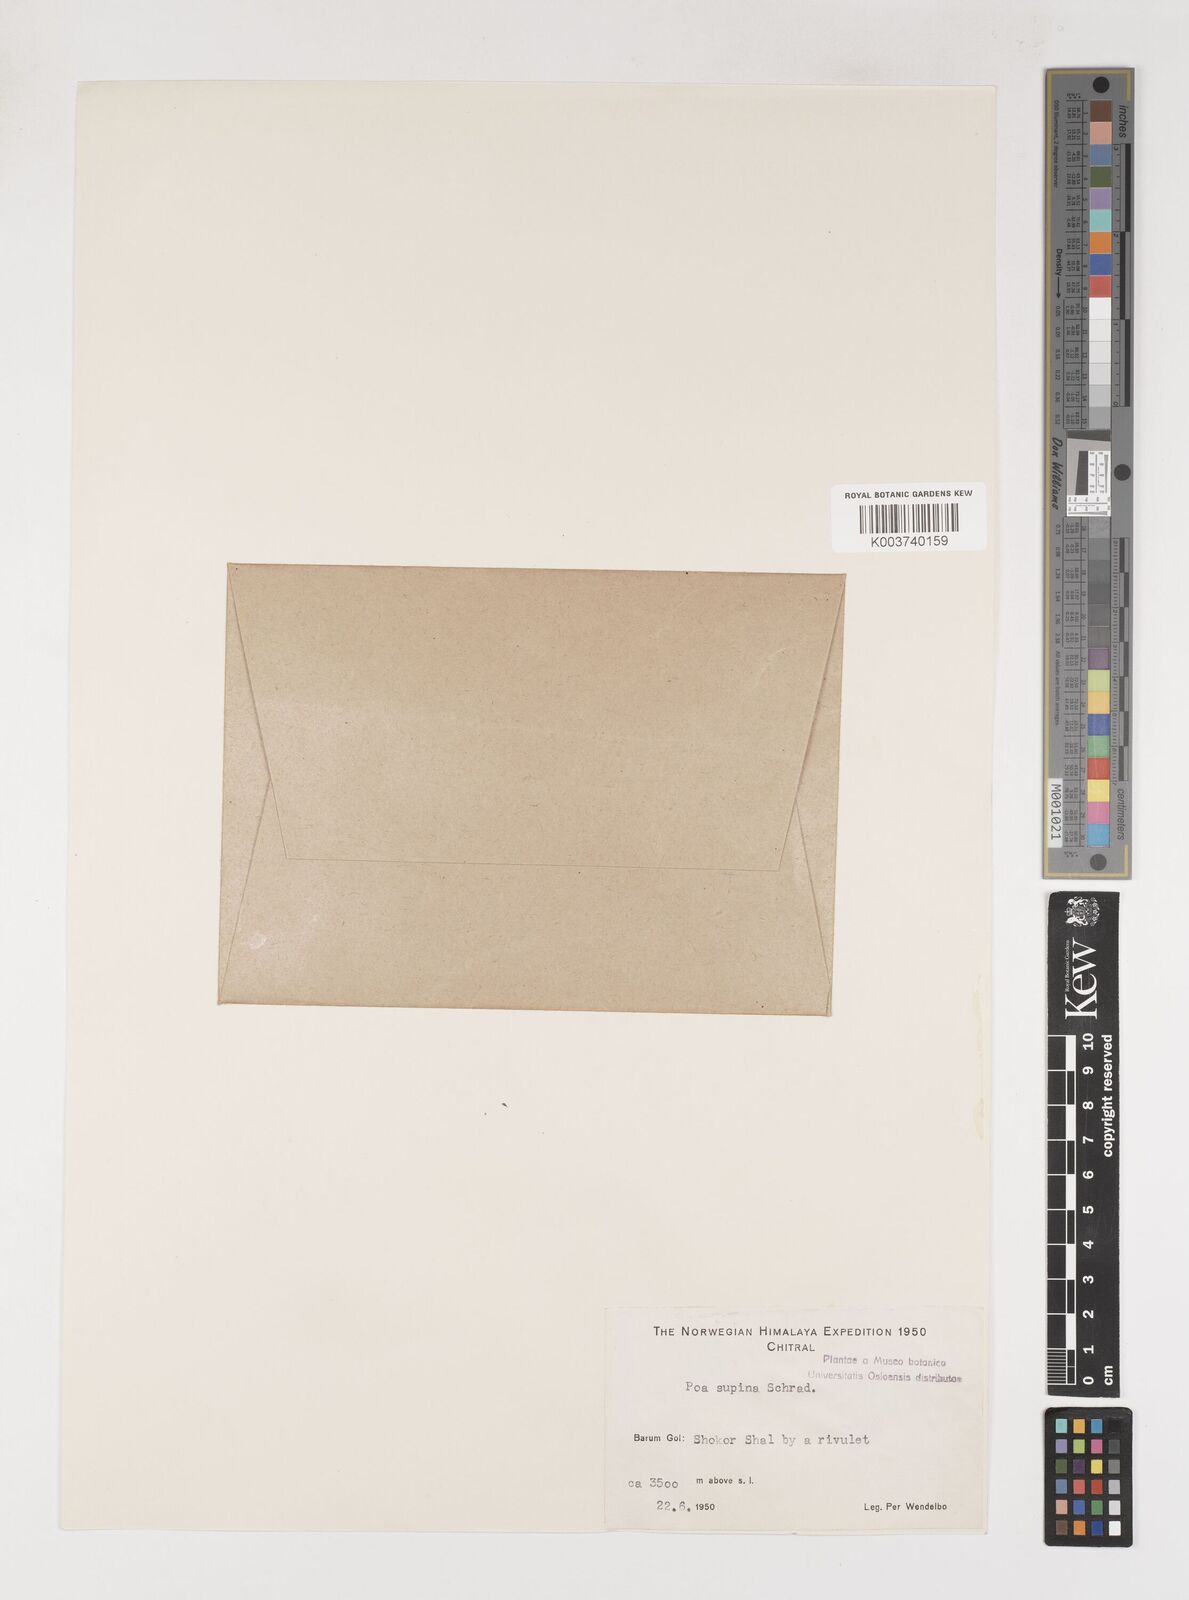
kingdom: Plantae
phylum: Tracheophyta
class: Liliopsida
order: Poales
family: Poaceae
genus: Poa
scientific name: Poa supina
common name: Supina bluegrass
